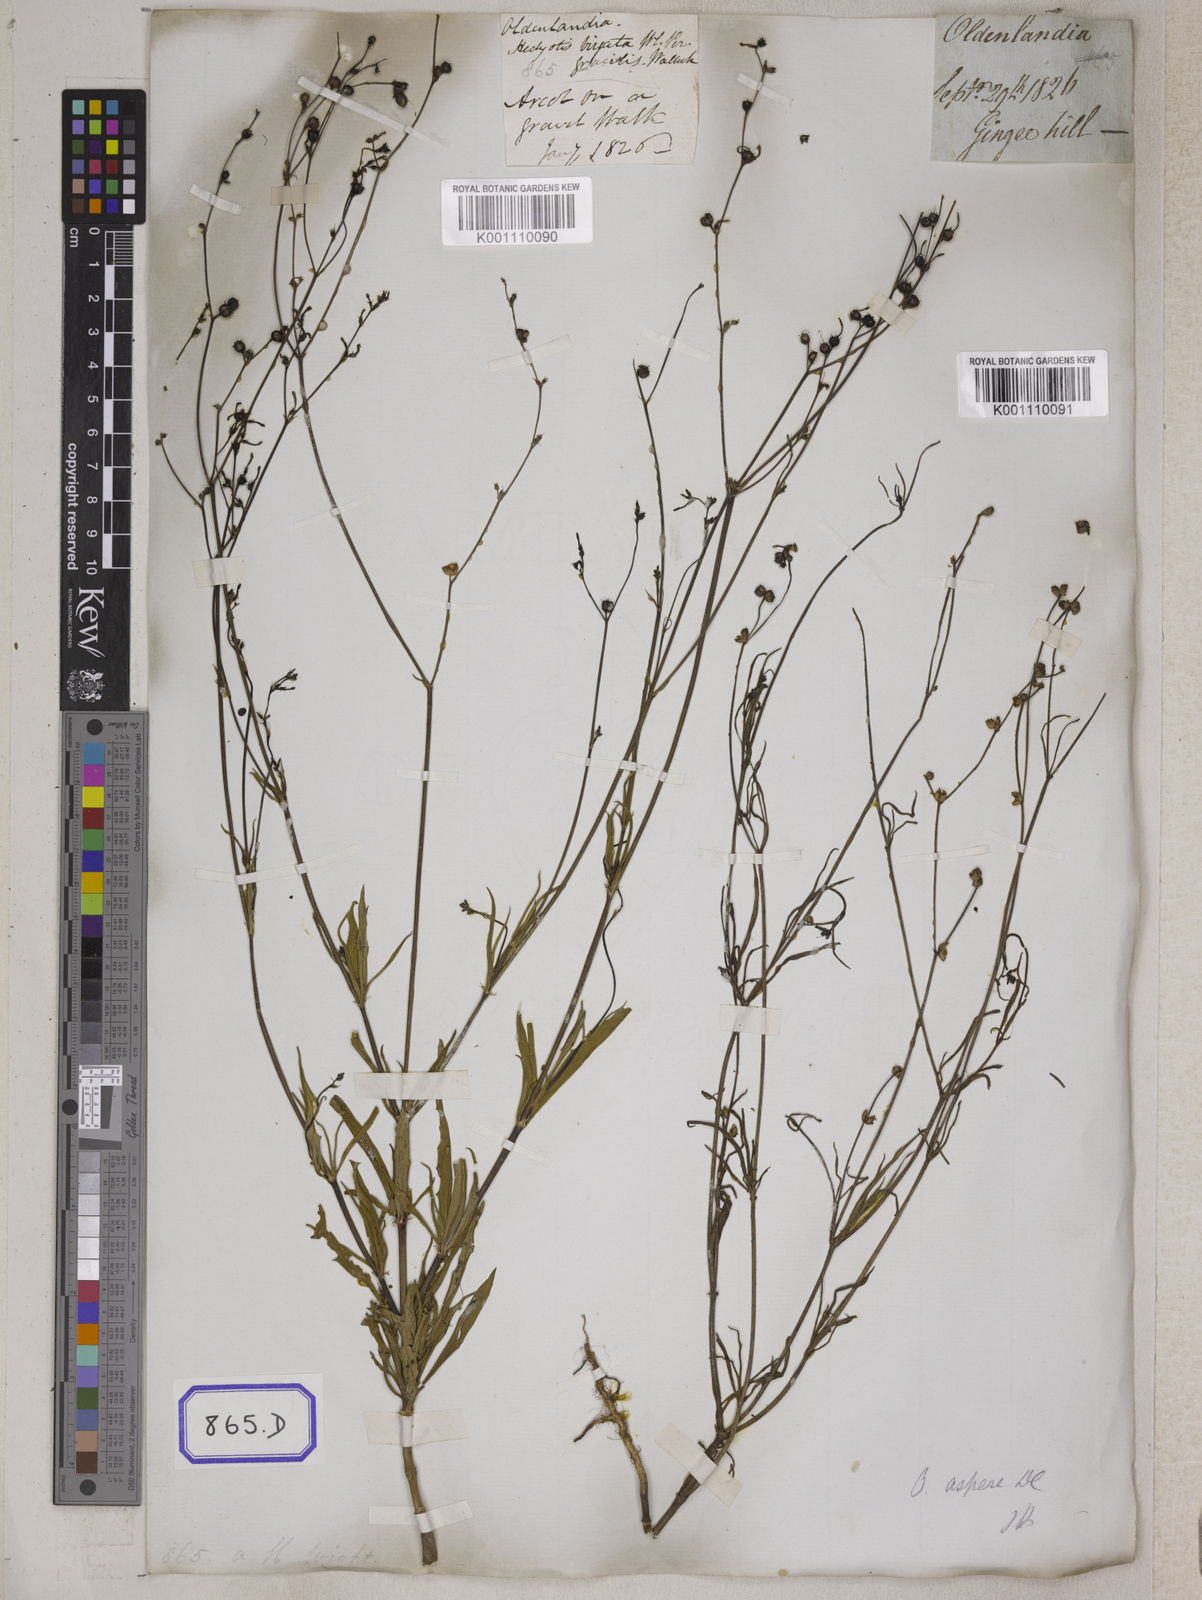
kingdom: Plantae
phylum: Tracheophyta
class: Magnoliopsida
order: Gentianales
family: Rubiaceae
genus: Hedyotis
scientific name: Hedyotis
